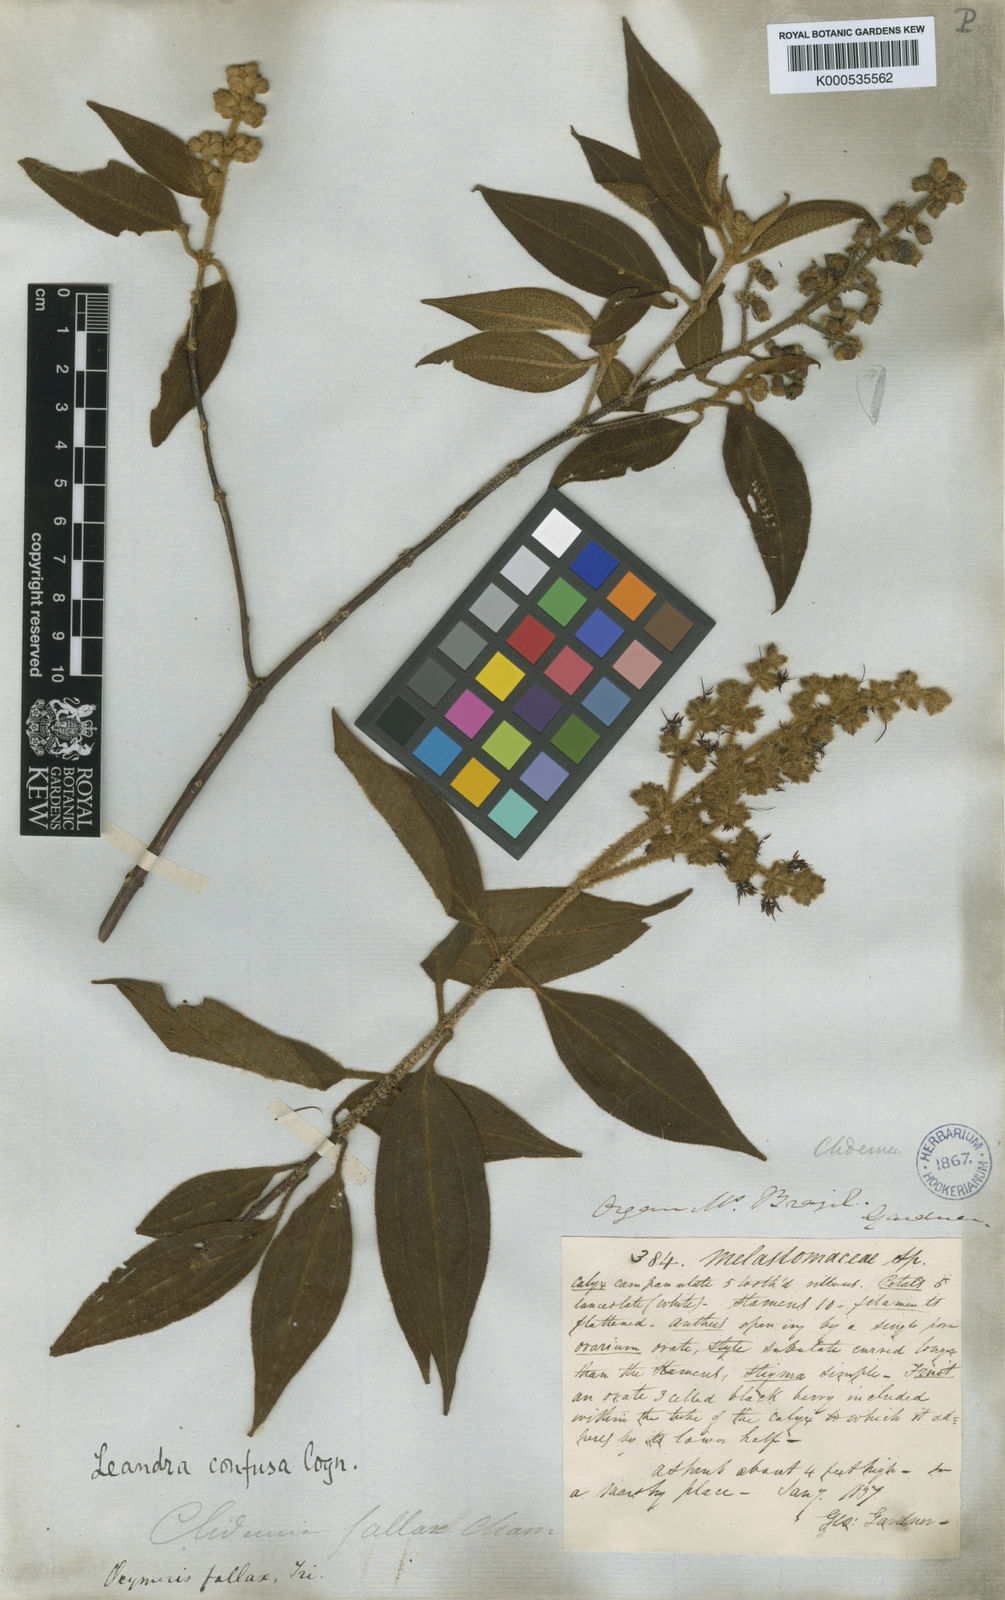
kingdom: Plantae
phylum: Tracheophyta
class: Magnoliopsida
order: Myrtales
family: Melastomataceae
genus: Miconia
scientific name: Miconia leaconfusa
